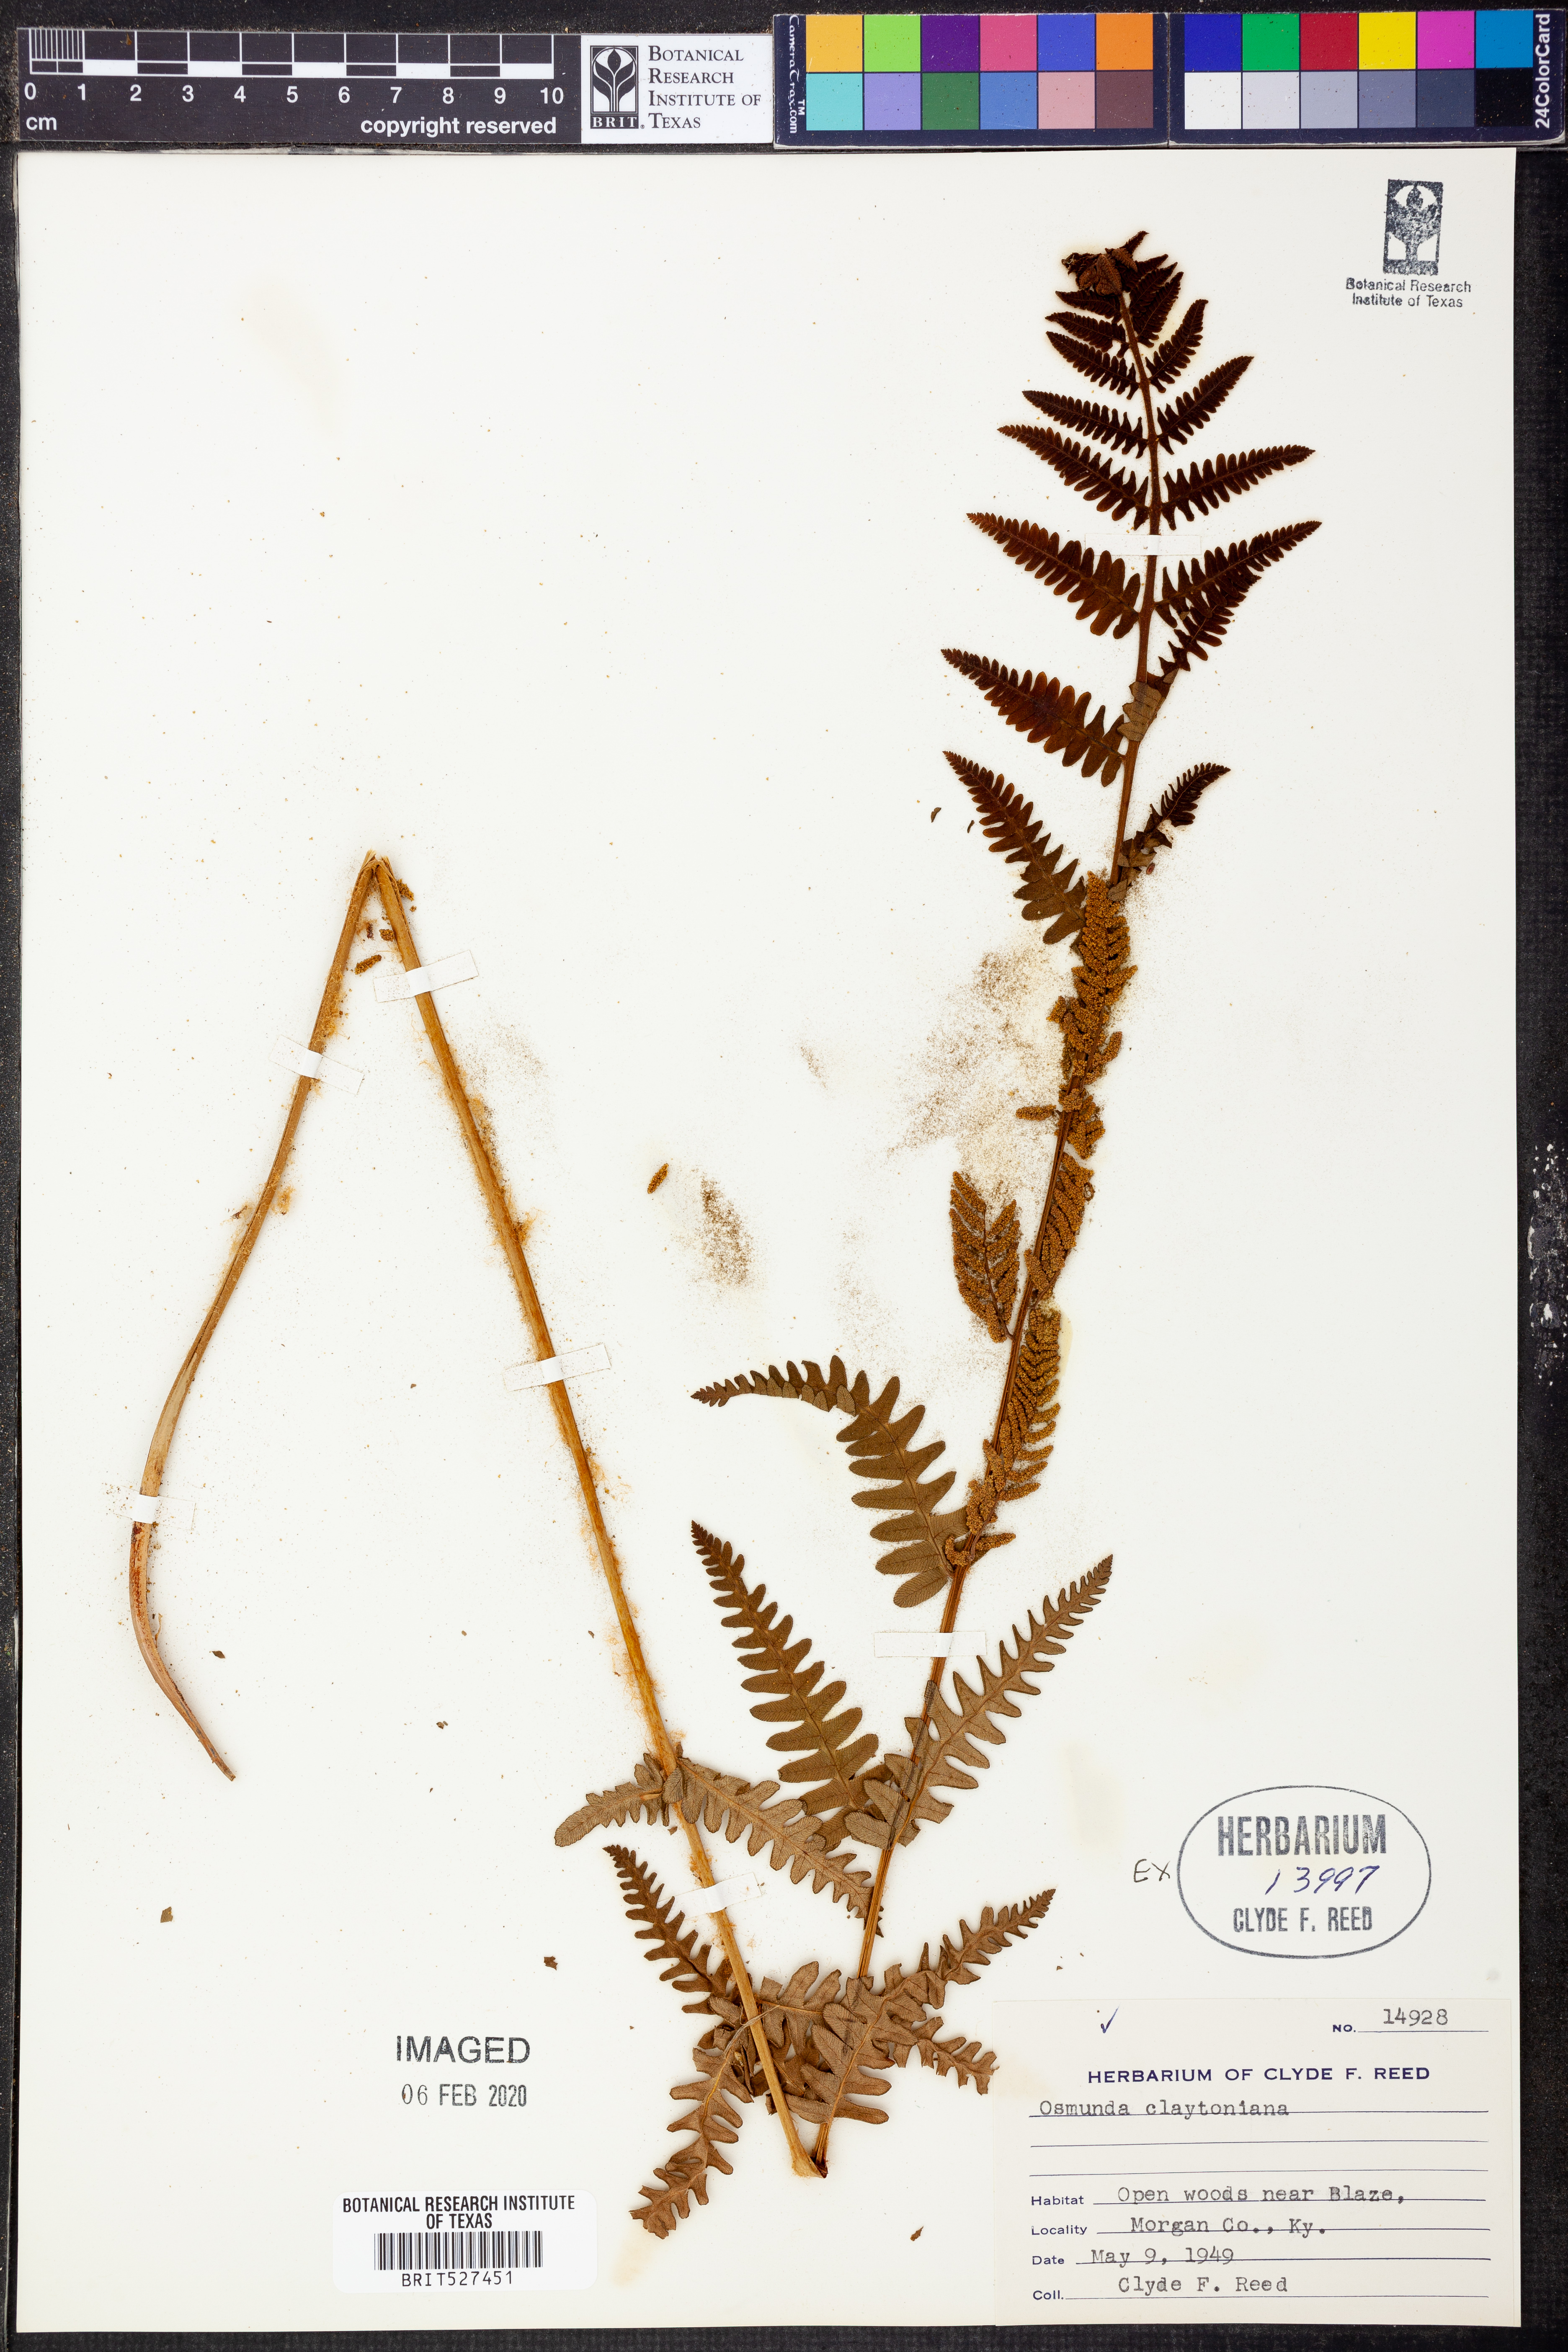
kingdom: Plantae
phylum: Tracheophyta
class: Polypodiopsida
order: Osmundales
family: Osmundaceae
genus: Claytosmunda
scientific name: Claytosmunda claytoniana
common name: Clayton's fern
